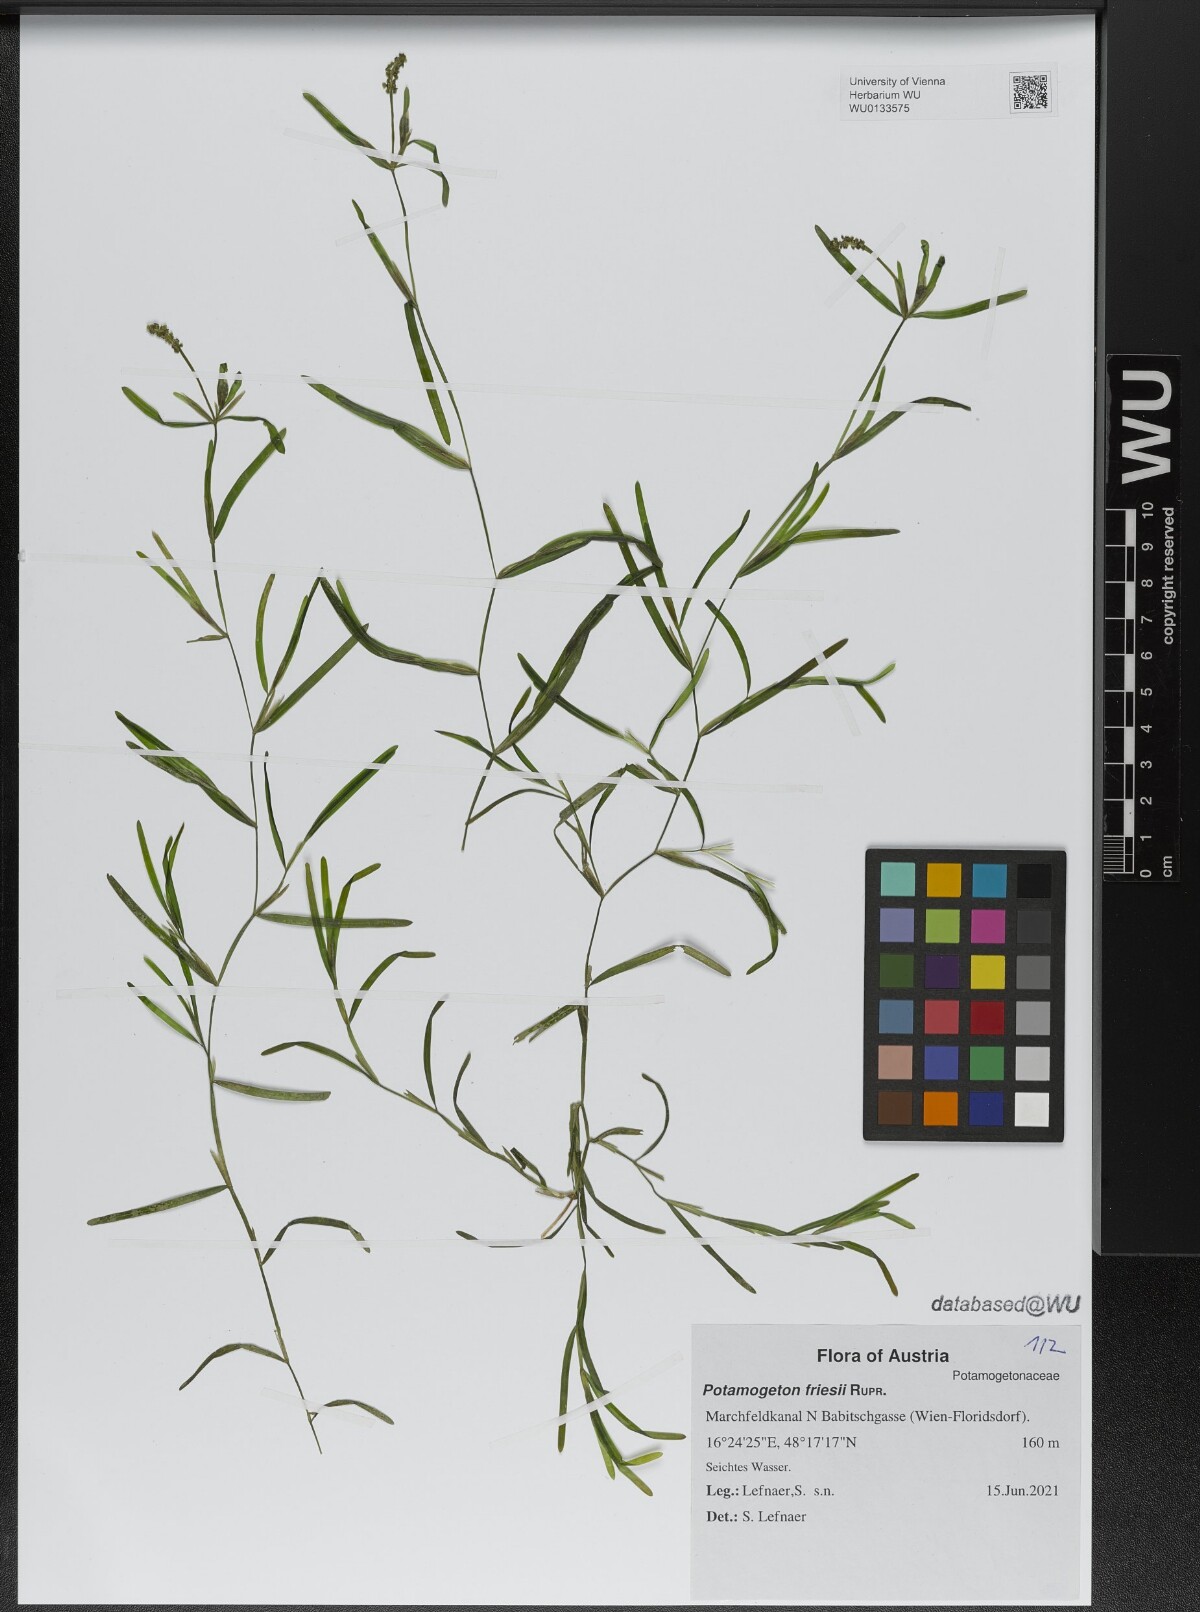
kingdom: Plantae
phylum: Tracheophyta
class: Liliopsida
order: Alismatales
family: Potamogetonaceae
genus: Potamogeton
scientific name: Potamogeton friesii
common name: Flat-stalked pondweed
